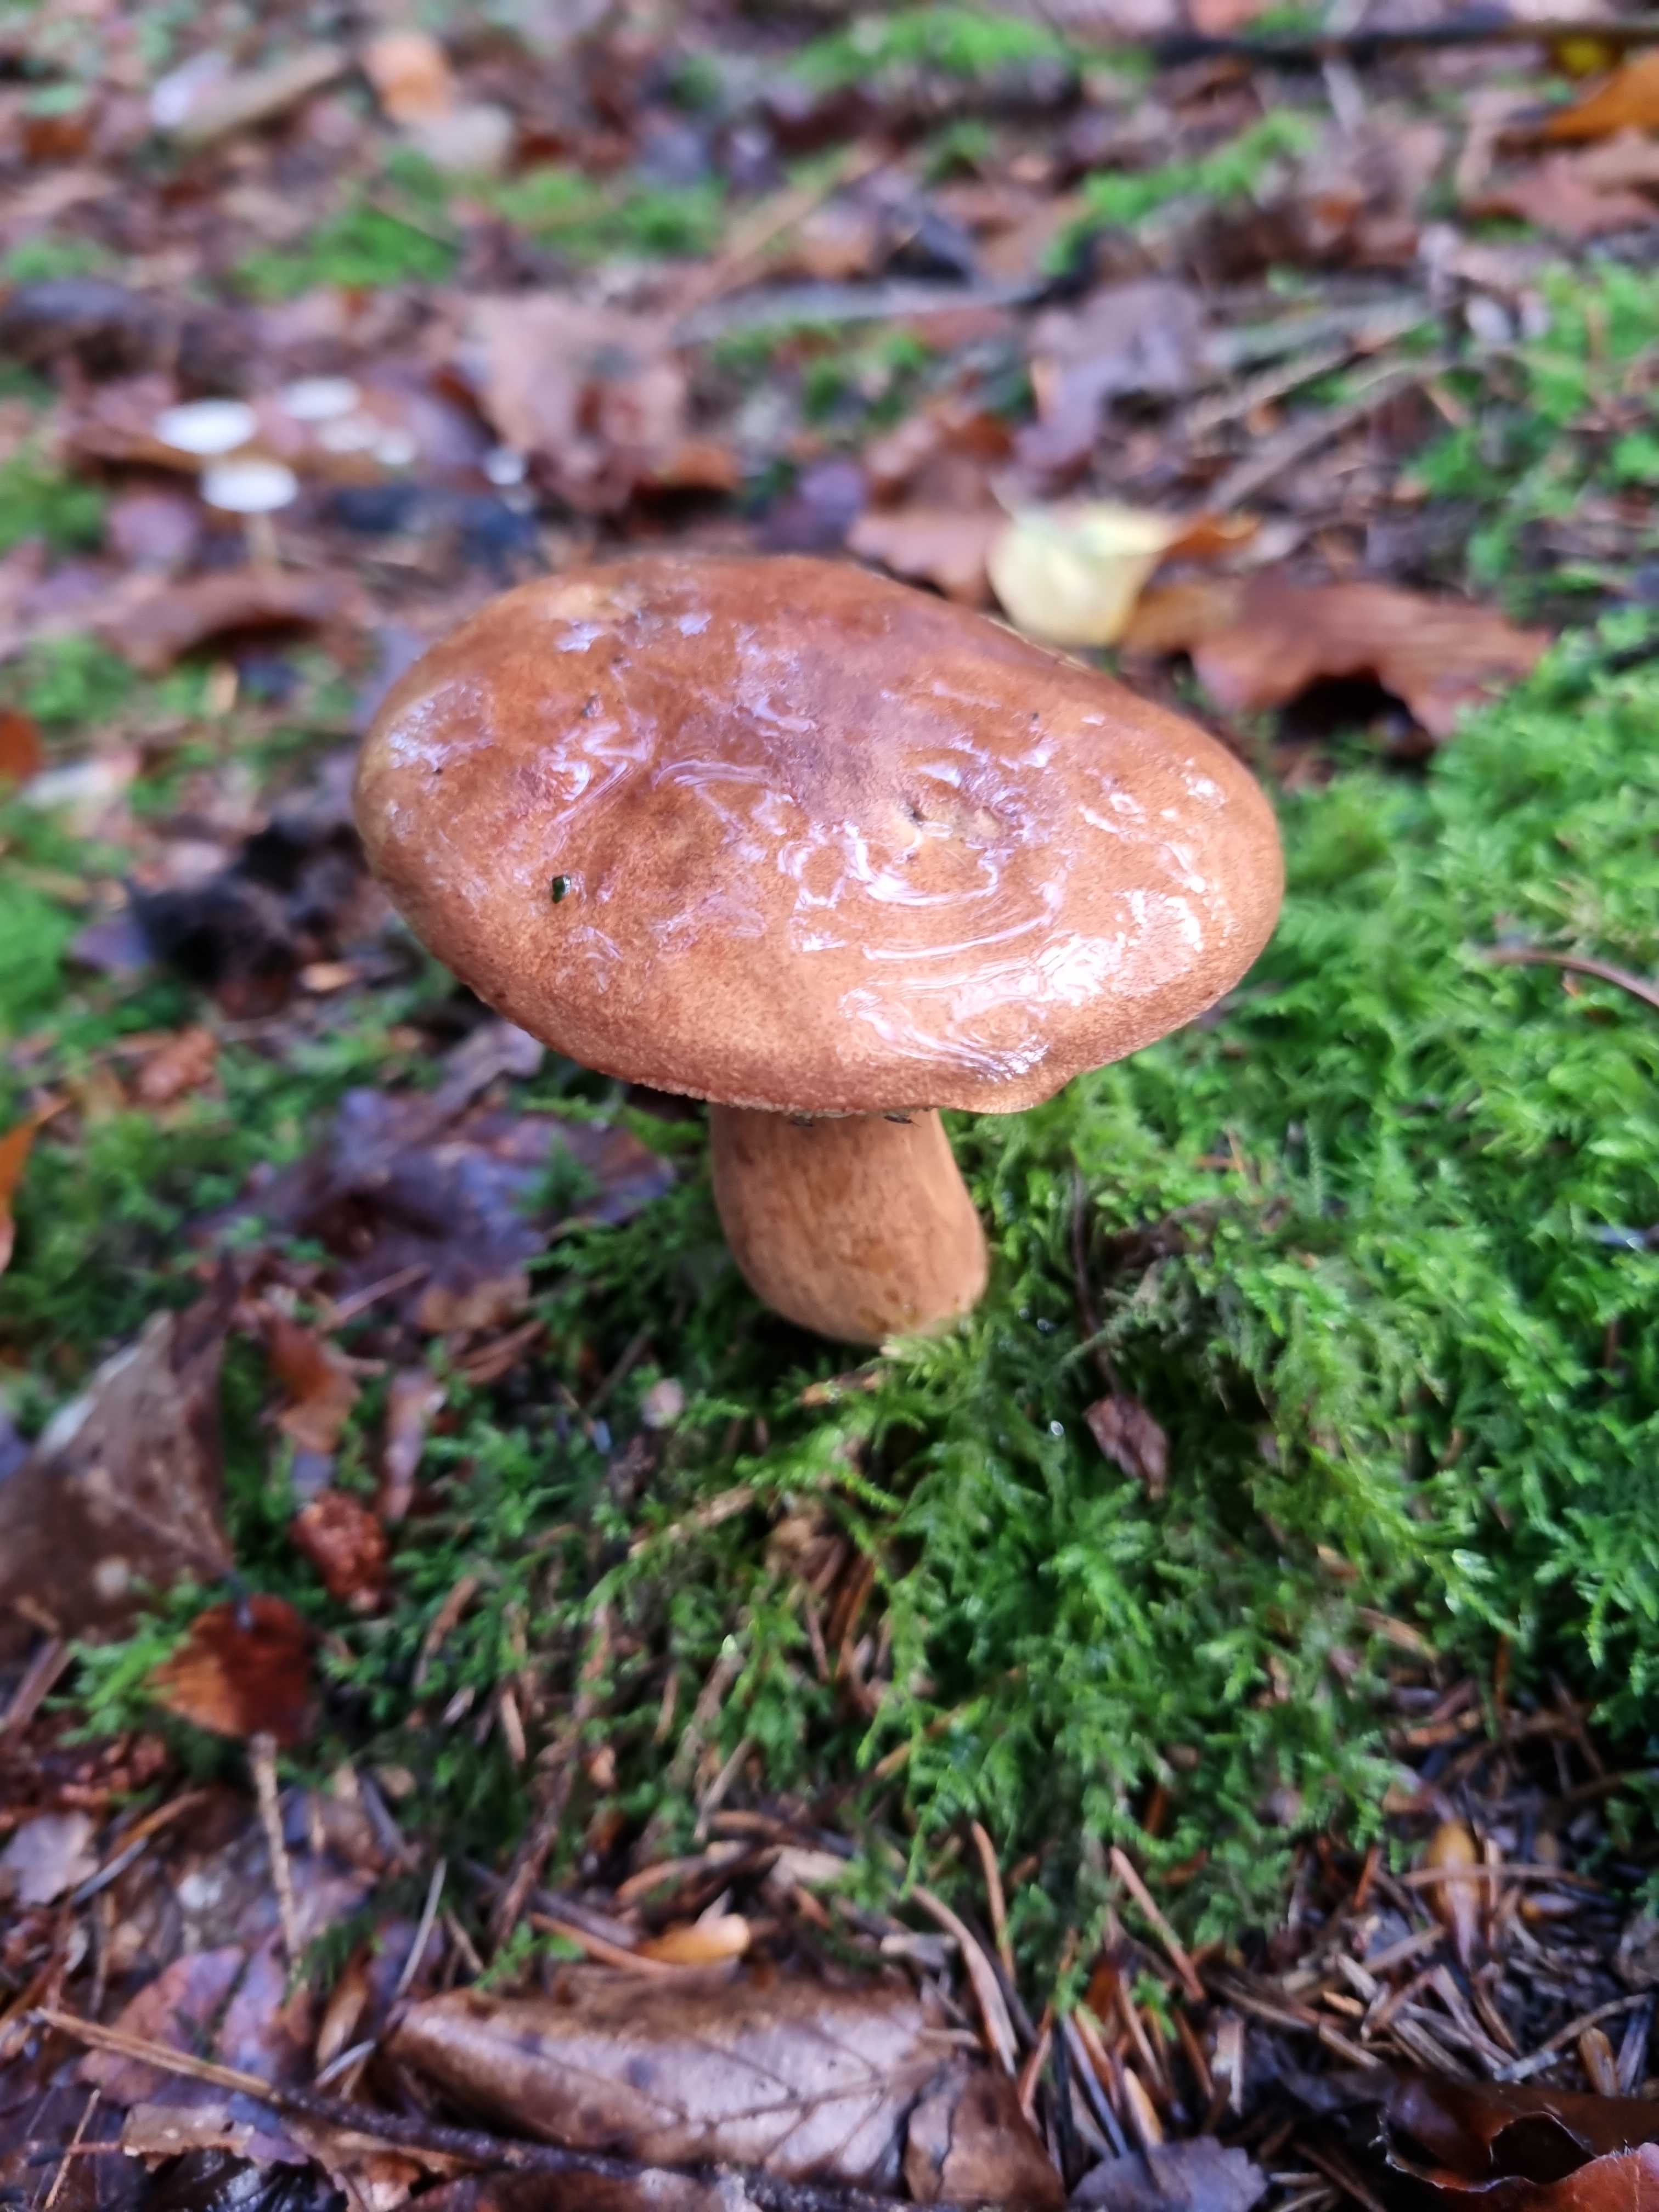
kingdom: Fungi
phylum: Basidiomycota
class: Agaricomycetes
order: Boletales
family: Boletaceae
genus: Imleria
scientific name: Imleria badia
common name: brunstokket rørhat
